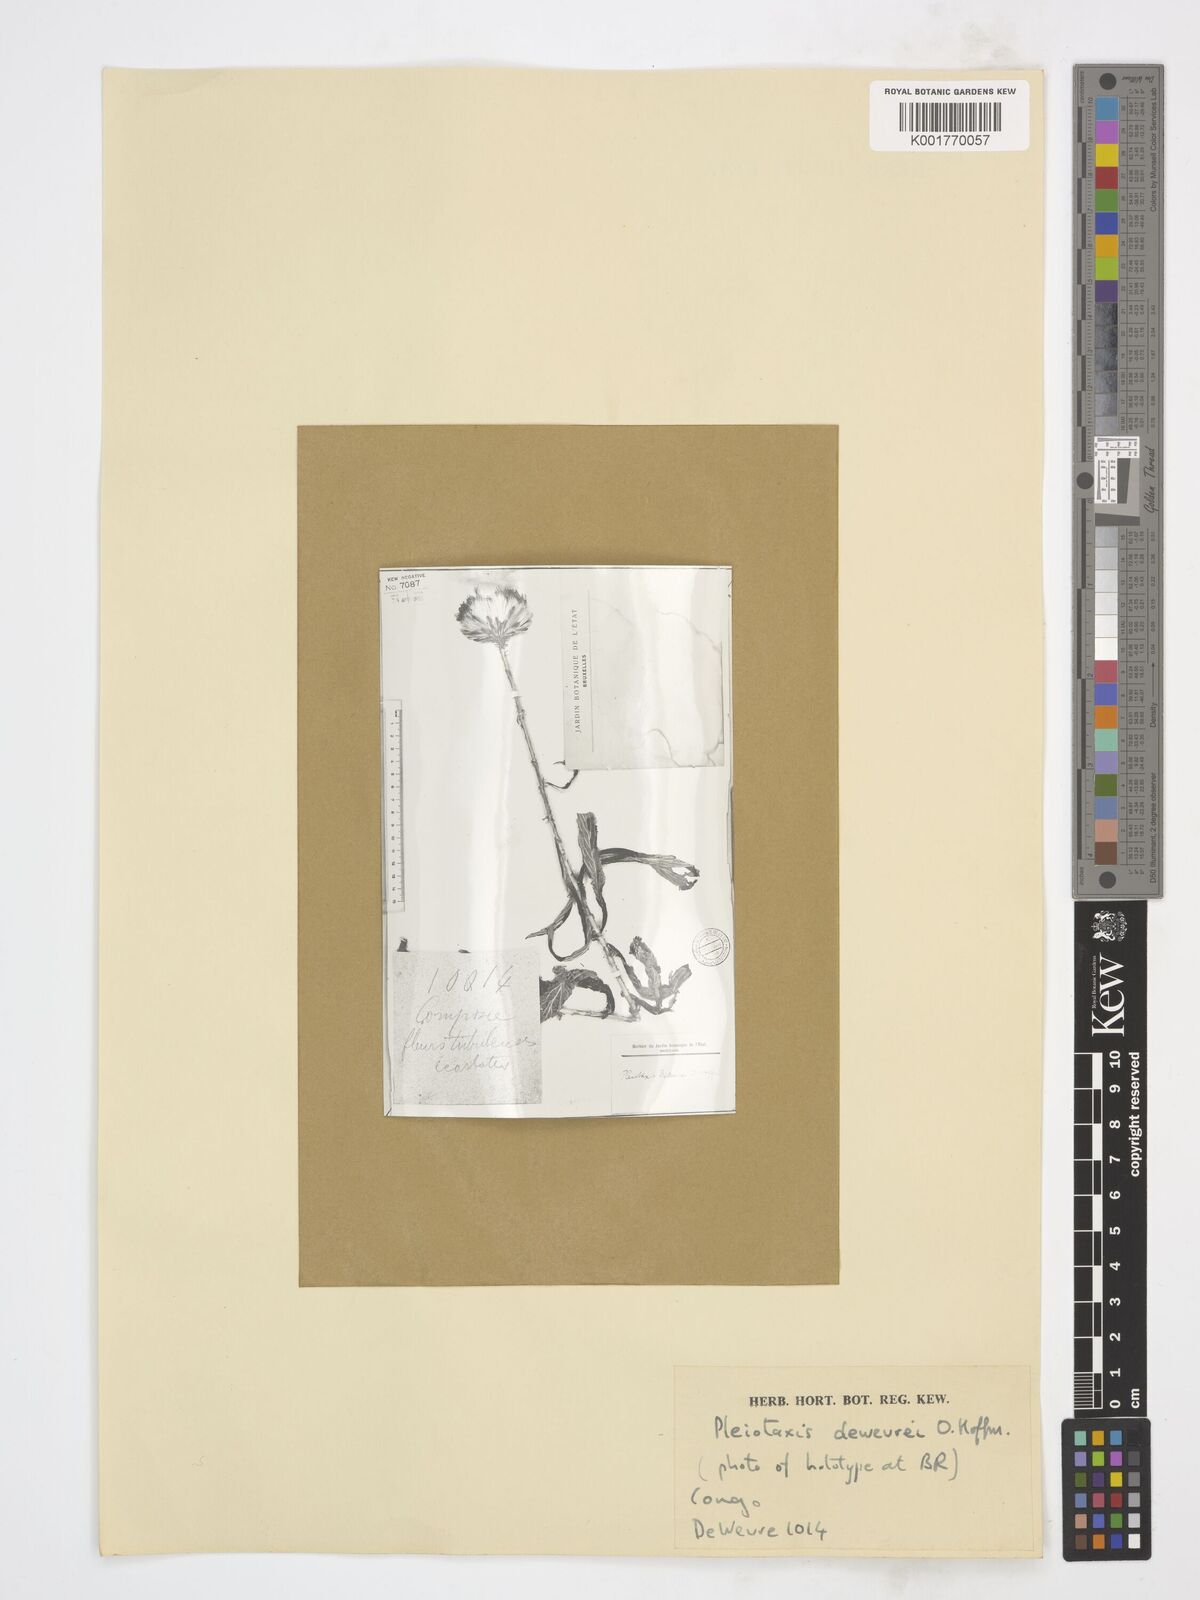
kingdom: Plantae
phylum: Tracheophyta
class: Magnoliopsida
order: Asterales
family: Asteraceae
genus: Pleiotaxis
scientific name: Pleiotaxis dewevrei
